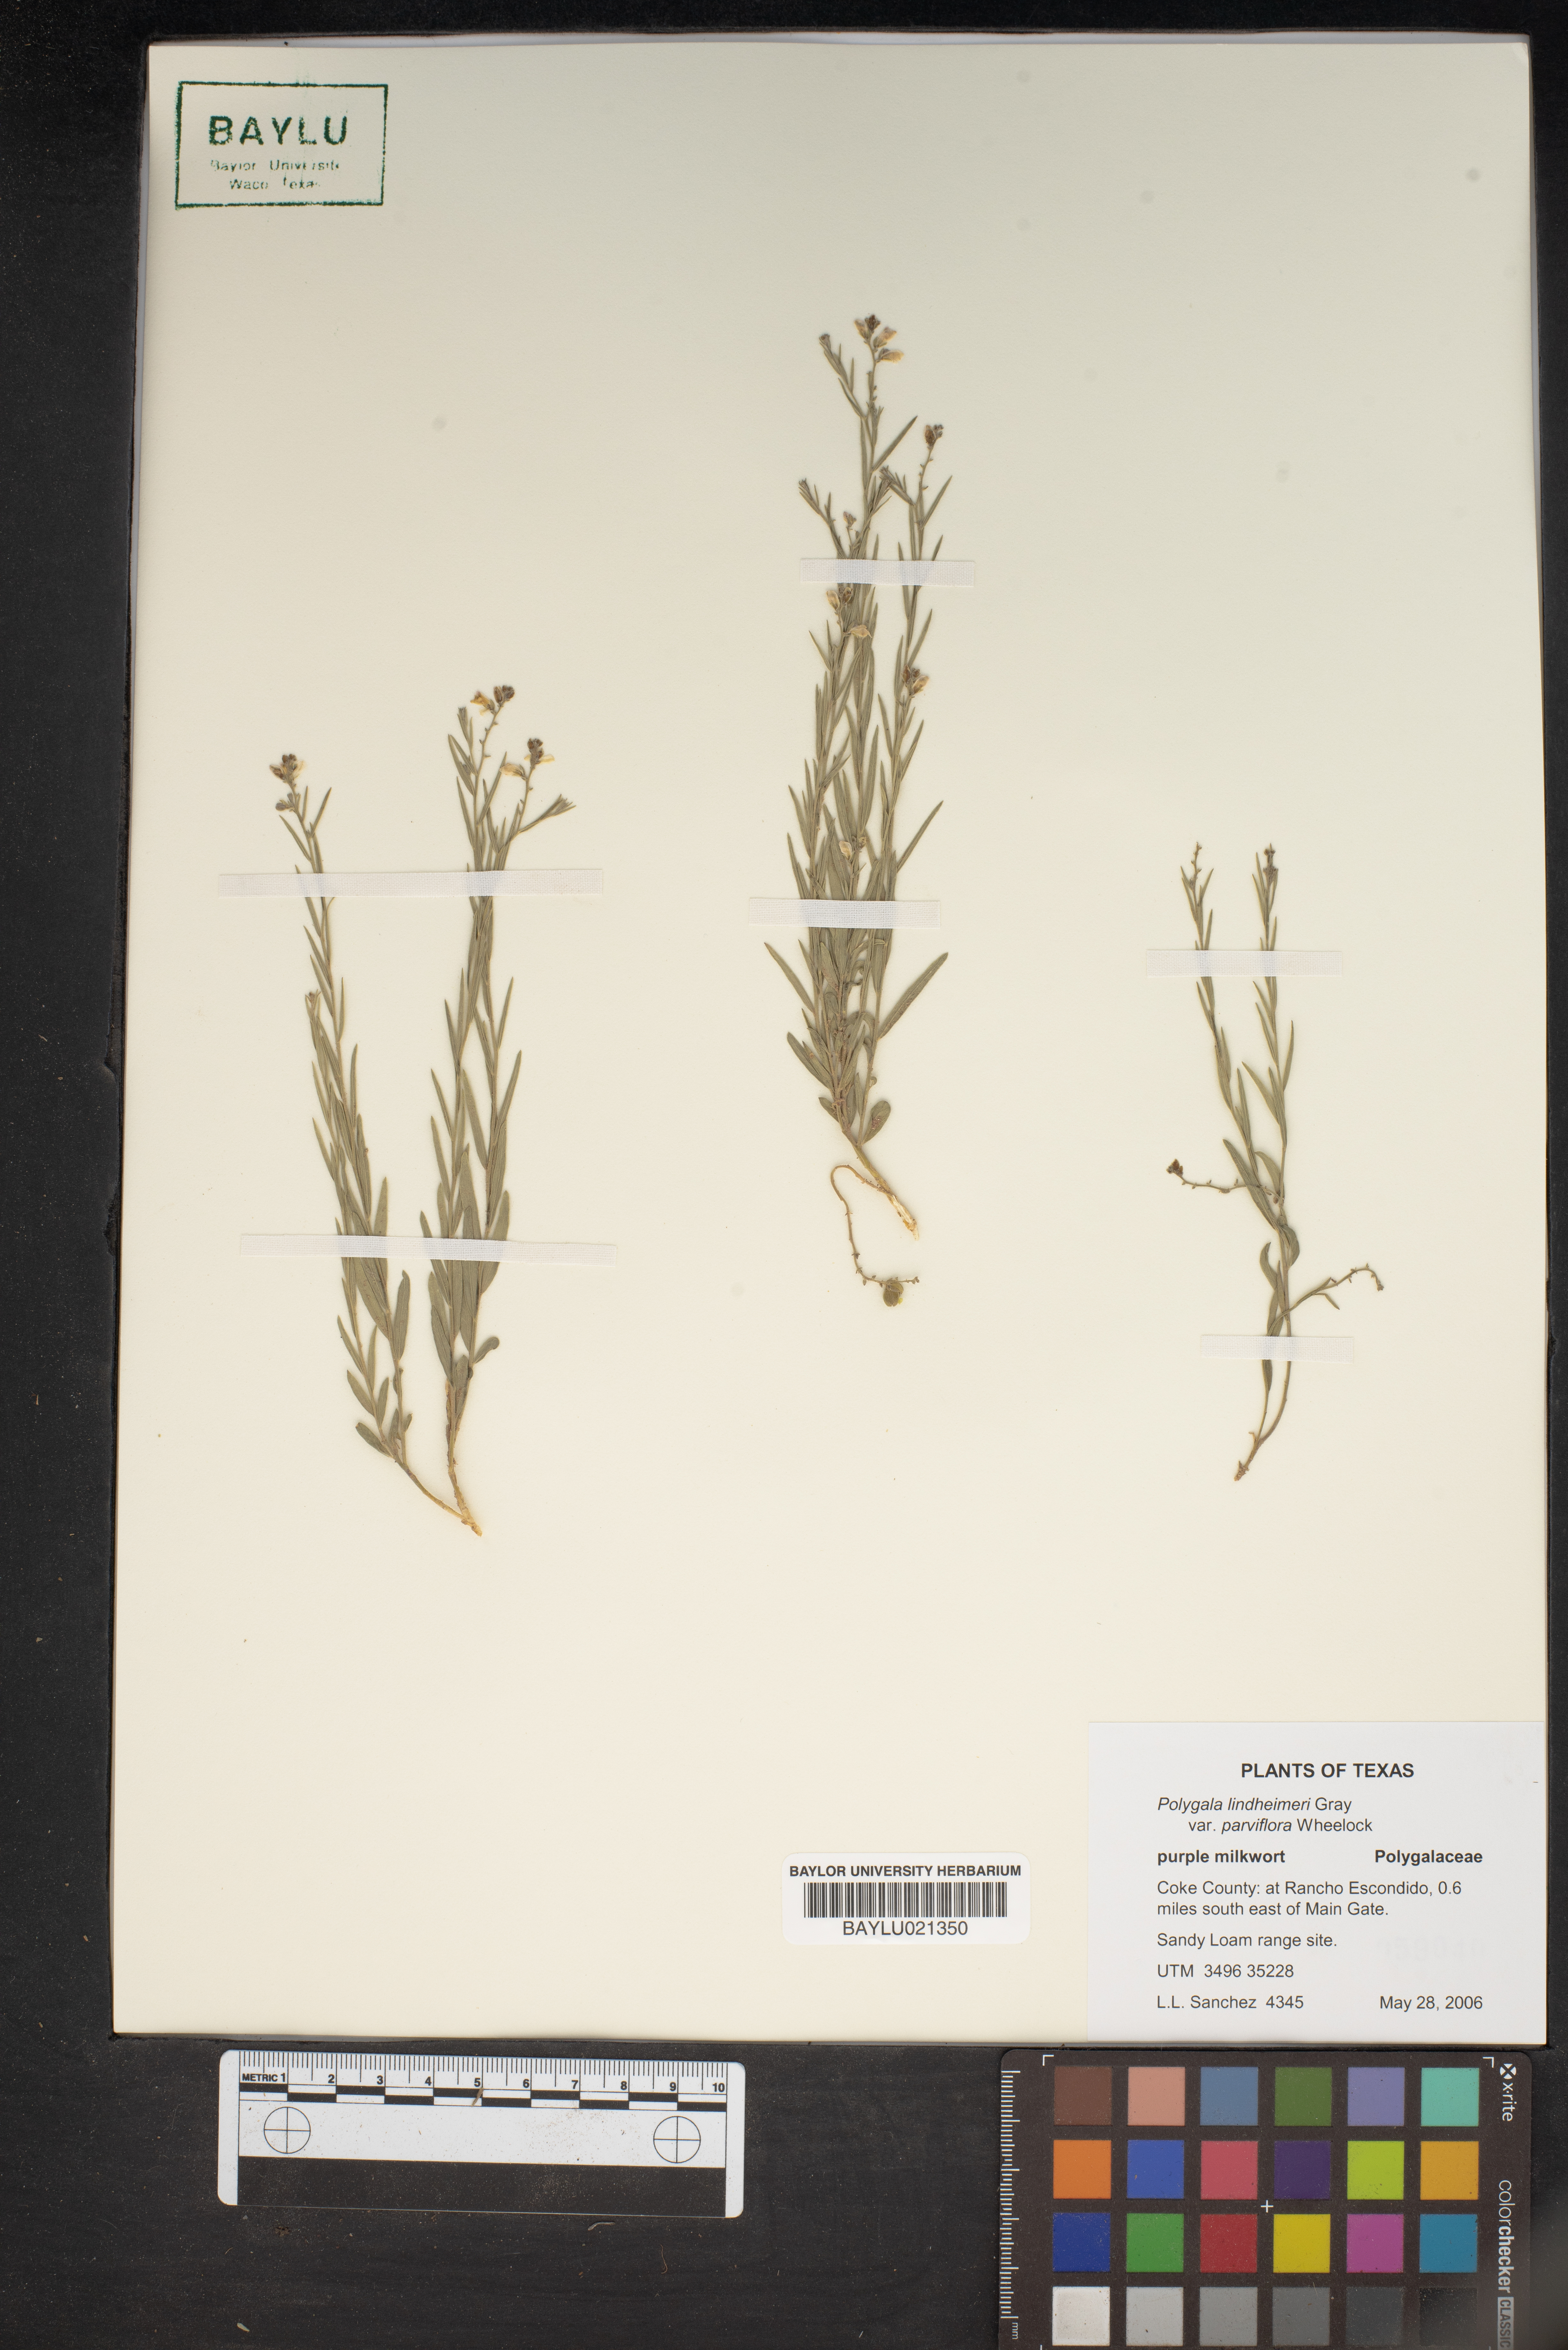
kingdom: Plantae
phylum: Tracheophyta
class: Magnoliopsida
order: Fabales
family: Polygalaceae
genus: Rhinotropis
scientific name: Rhinotropis lindheimeri
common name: Shrubby milkwort
